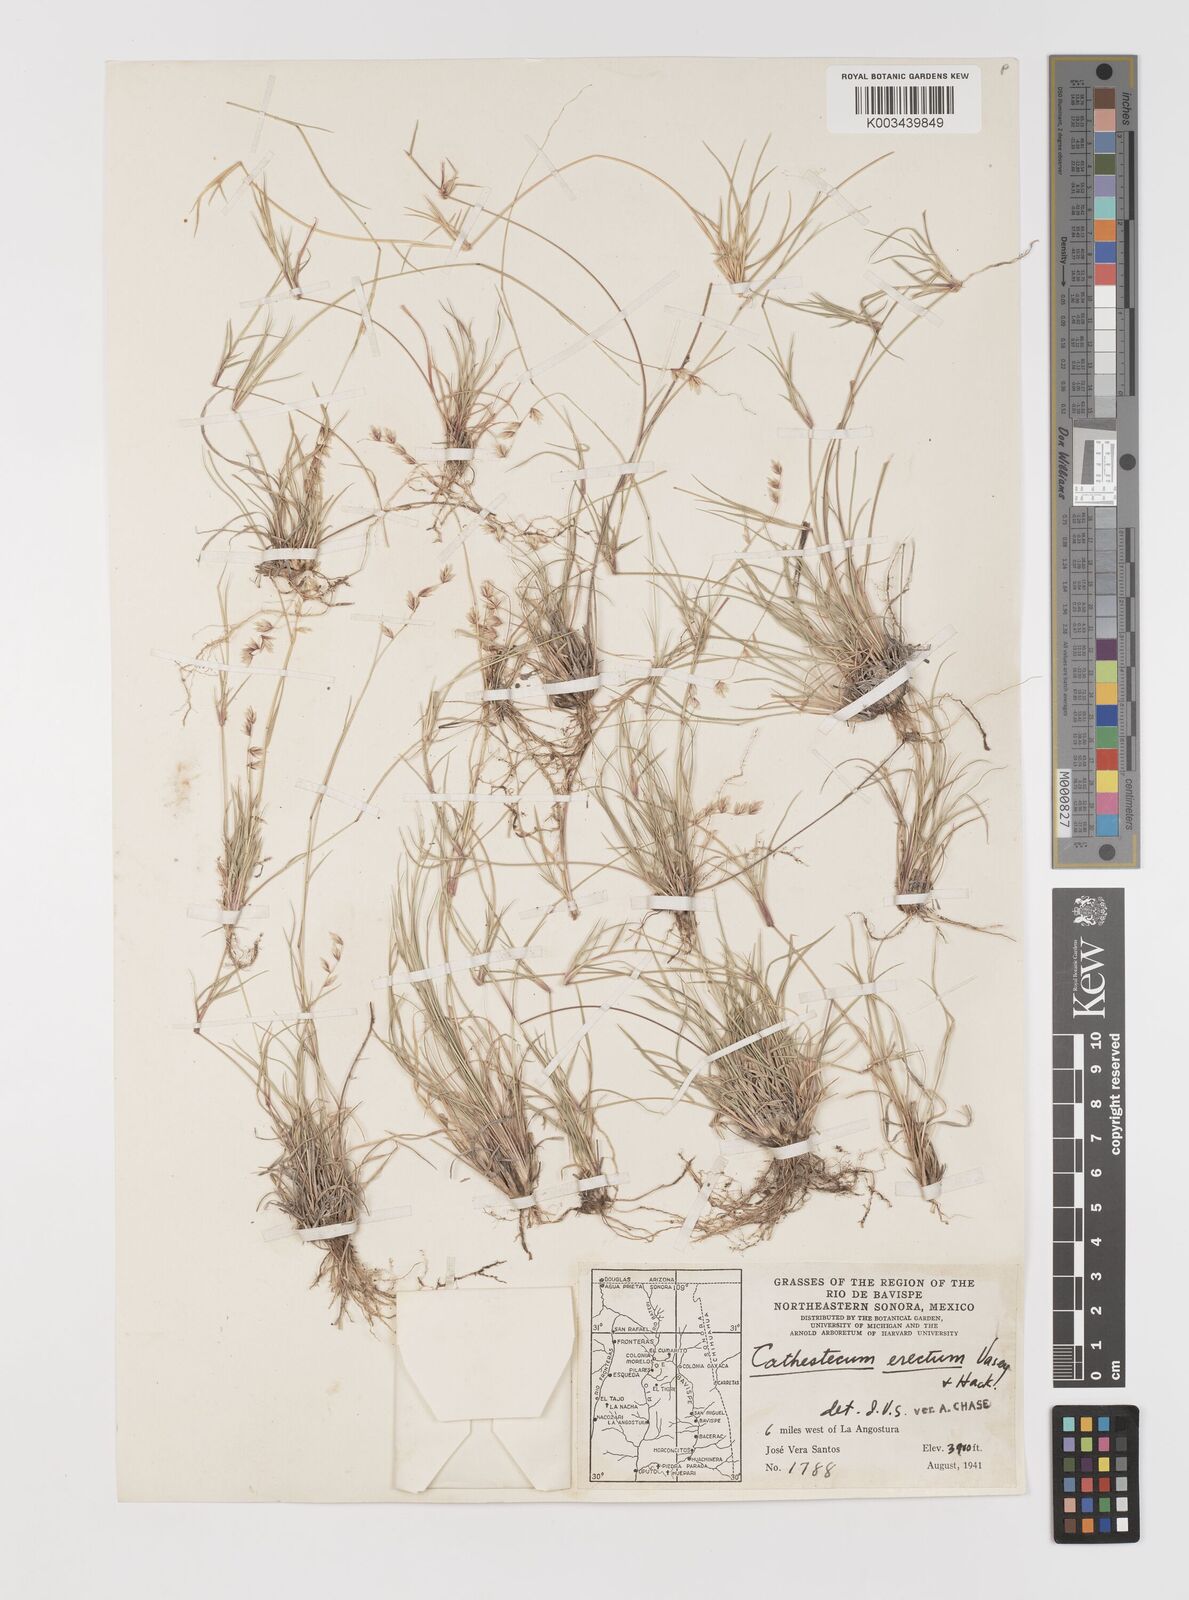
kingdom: Plantae
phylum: Tracheophyta
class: Liliopsida
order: Poales
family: Poaceae
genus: Bouteloua
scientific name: Bouteloua erecta
